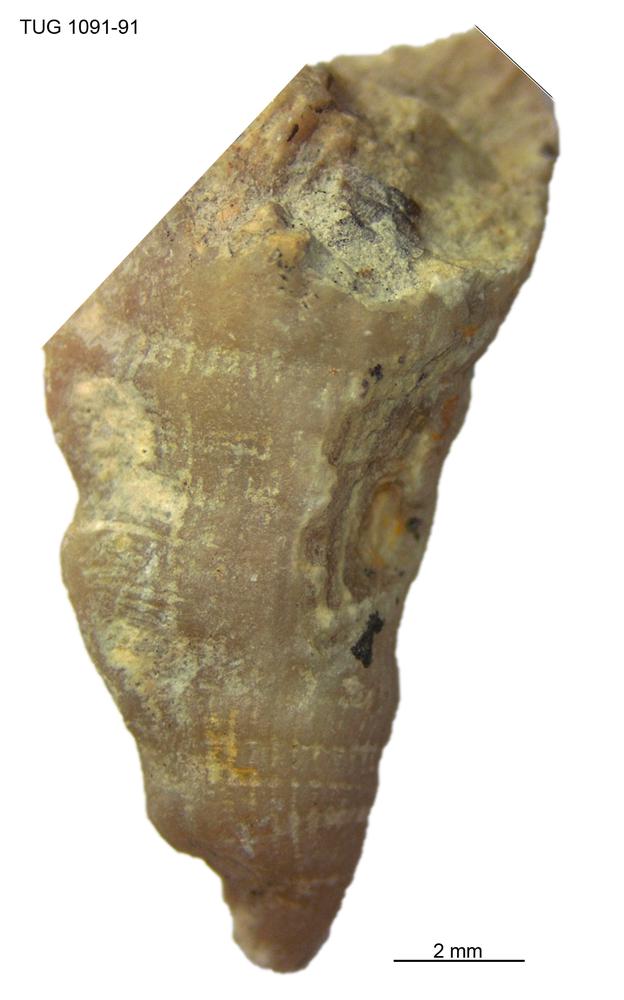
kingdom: Animalia
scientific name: Animalia
